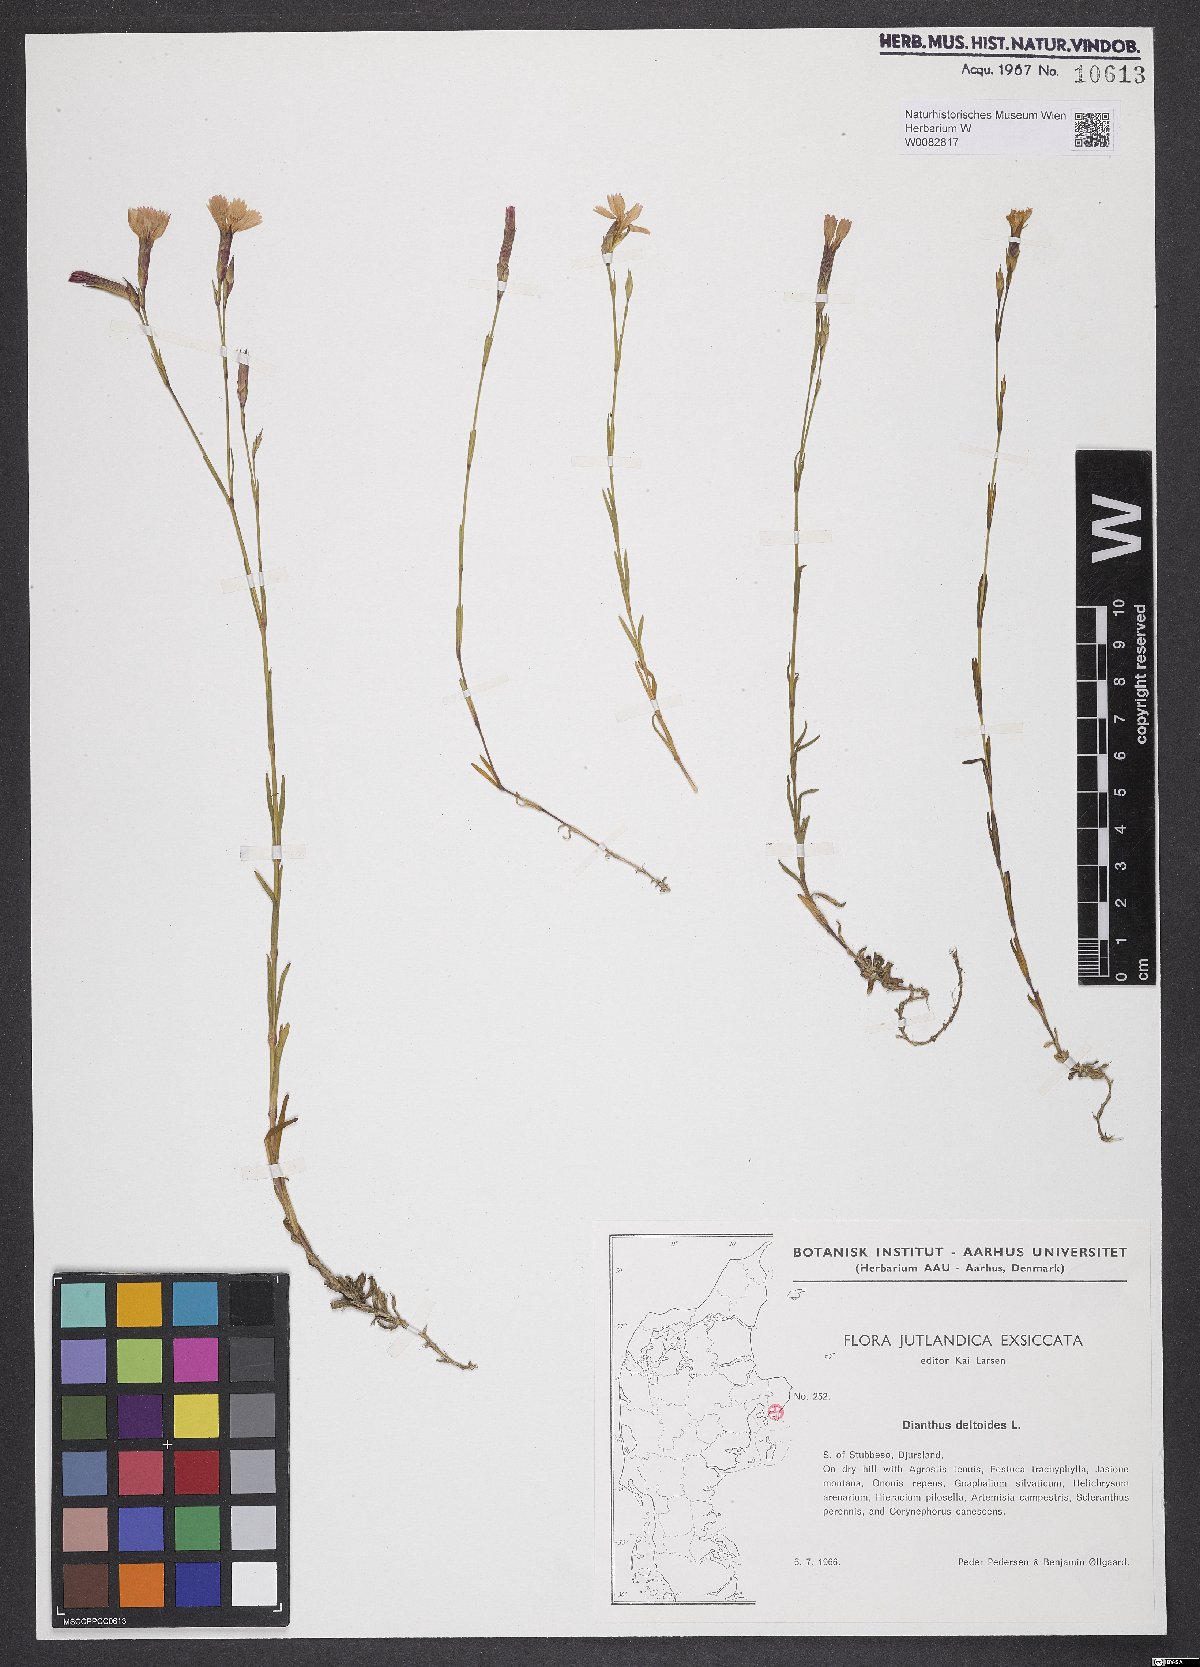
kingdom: Plantae
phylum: Tracheophyta
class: Magnoliopsida
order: Caryophyllales
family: Caryophyllaceae
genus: Dianthus
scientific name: Dianthus deltoides
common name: Maiden pink
